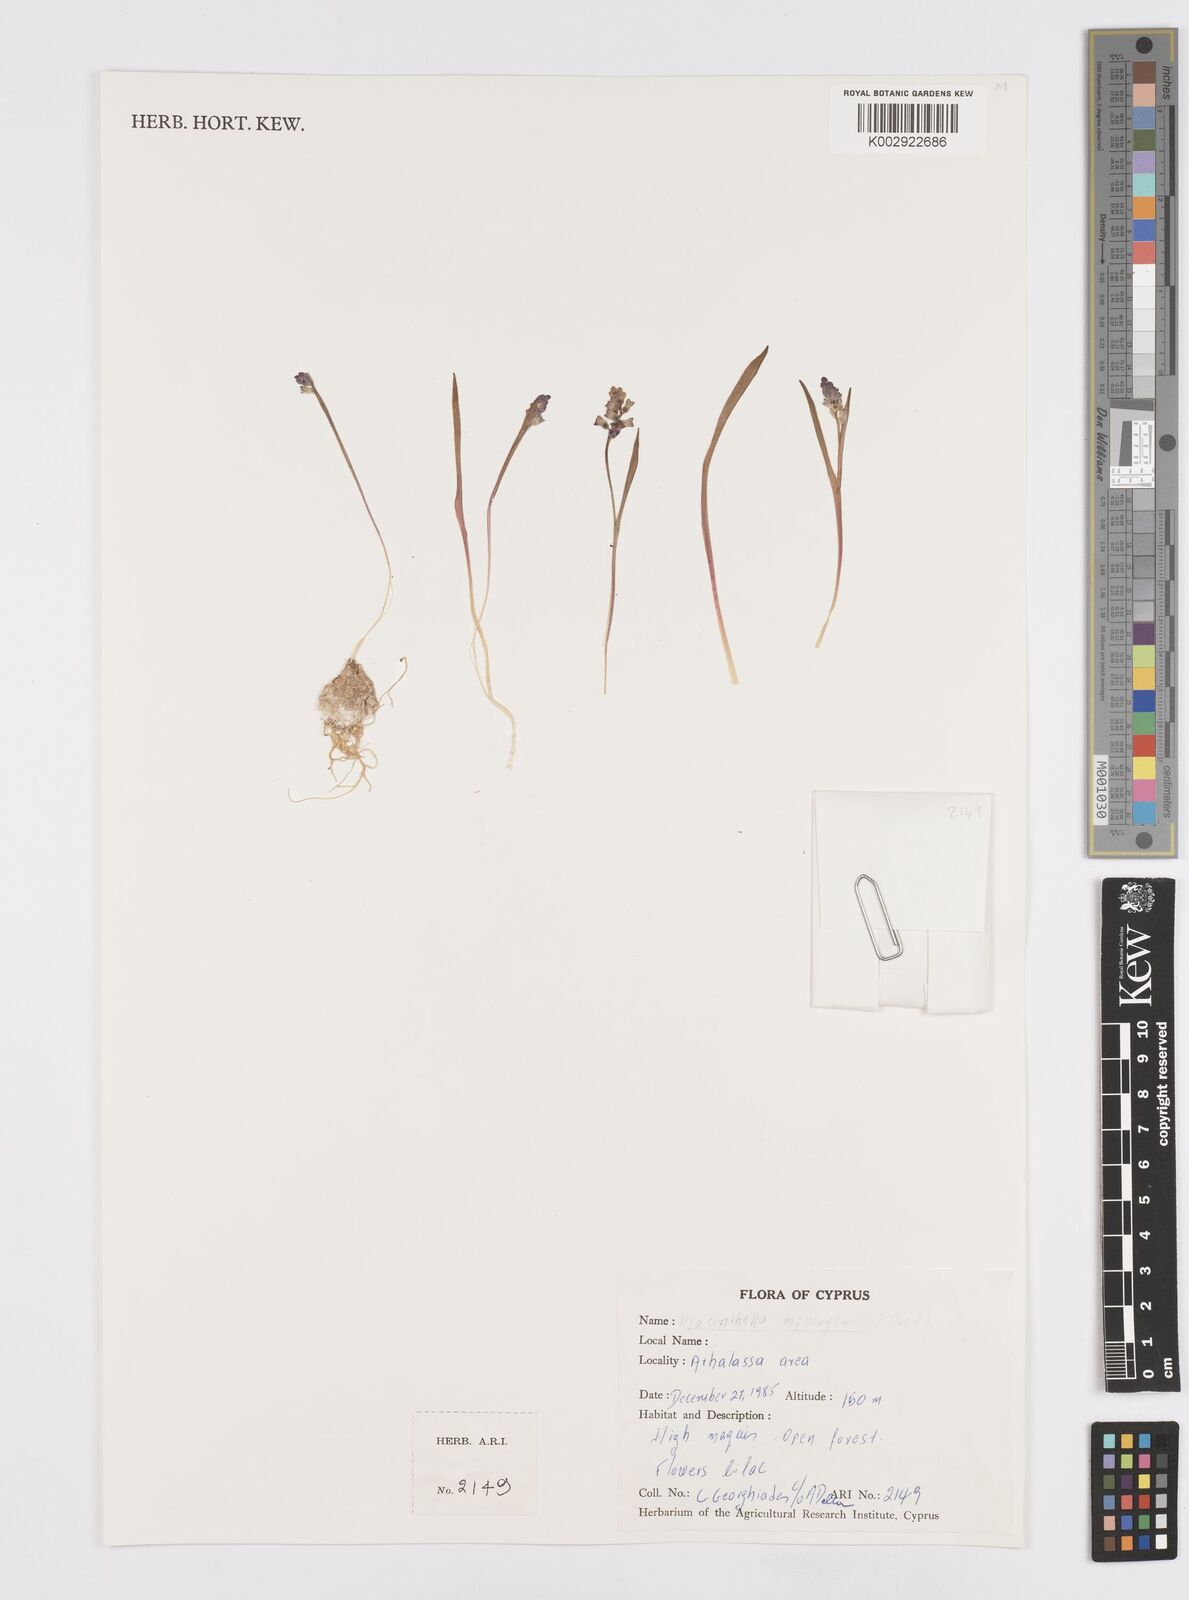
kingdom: Plantae
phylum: Tracheophyta
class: Liliopsida
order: Asparagales
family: Asparagaceae
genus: Hyacinthella
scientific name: Hyacinthella millingenii
